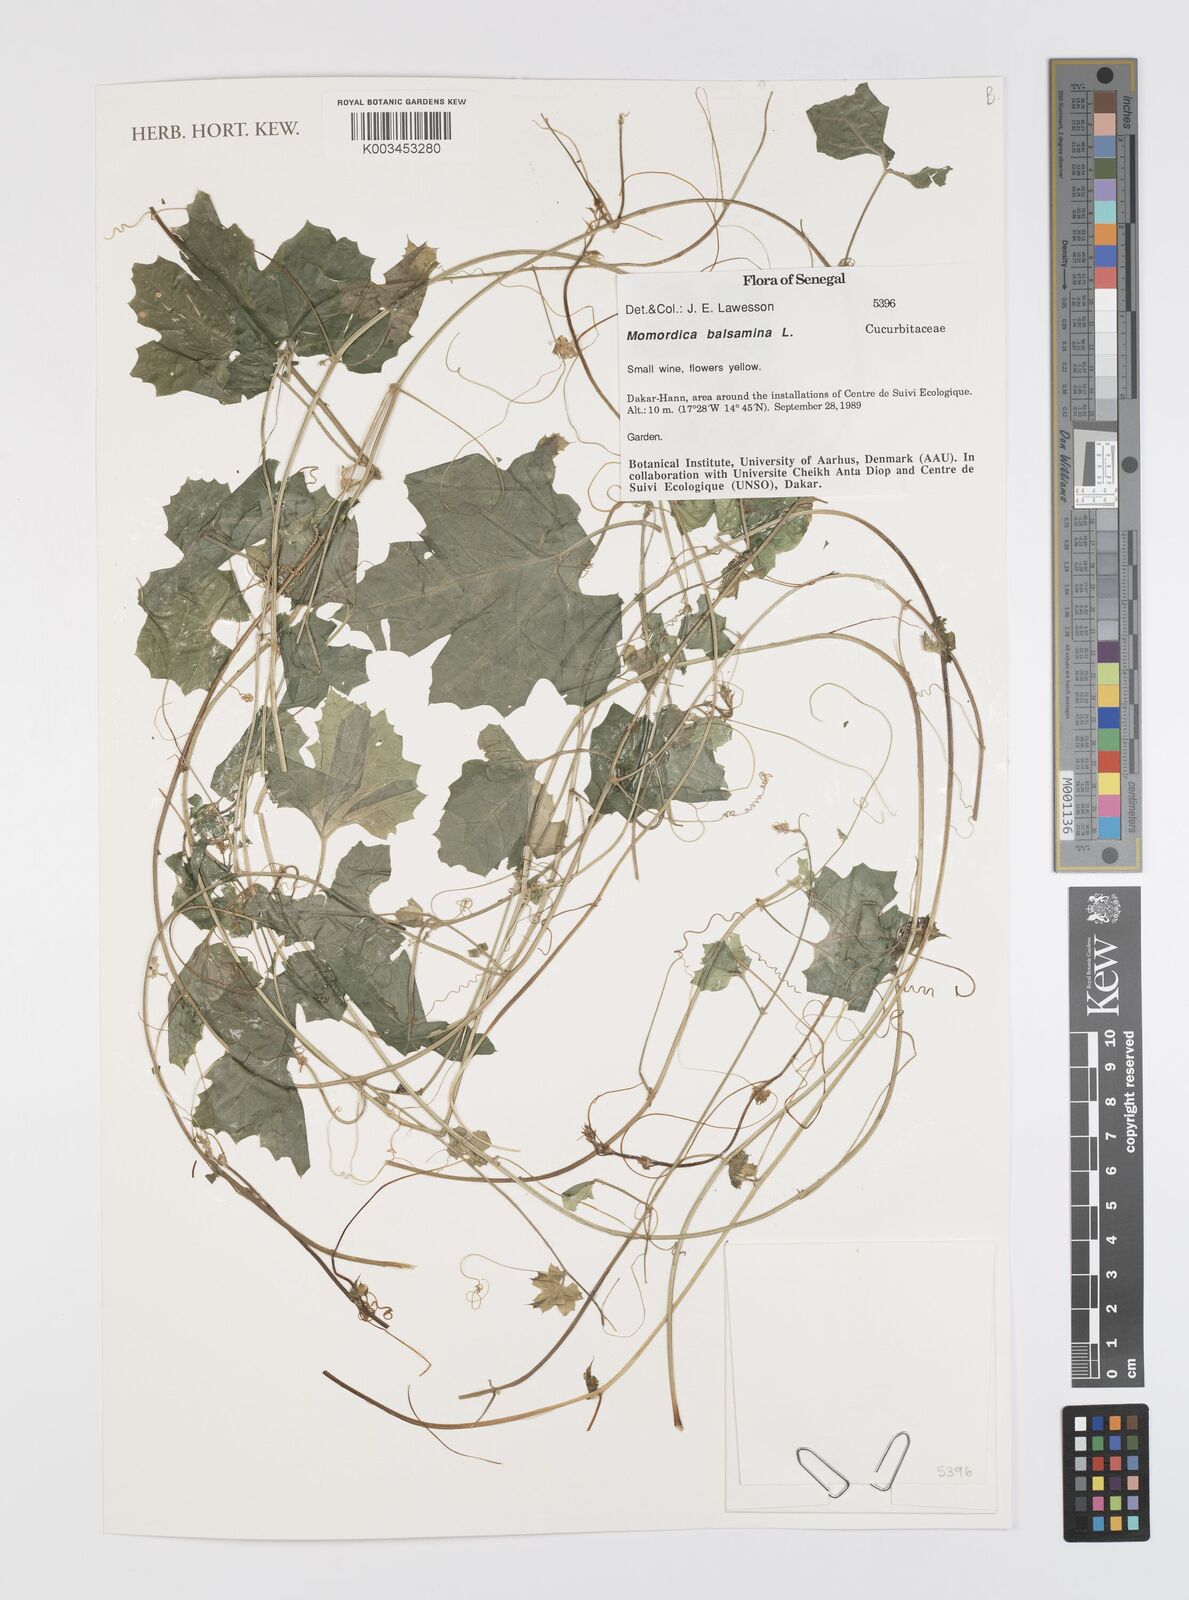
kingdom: Plantae
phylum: Tracheophyta
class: Magnoliopsida
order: Cucurbitales
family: Cucurbitaceae
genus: Momordica
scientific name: Momordica balsamina
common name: Southern balsampear
